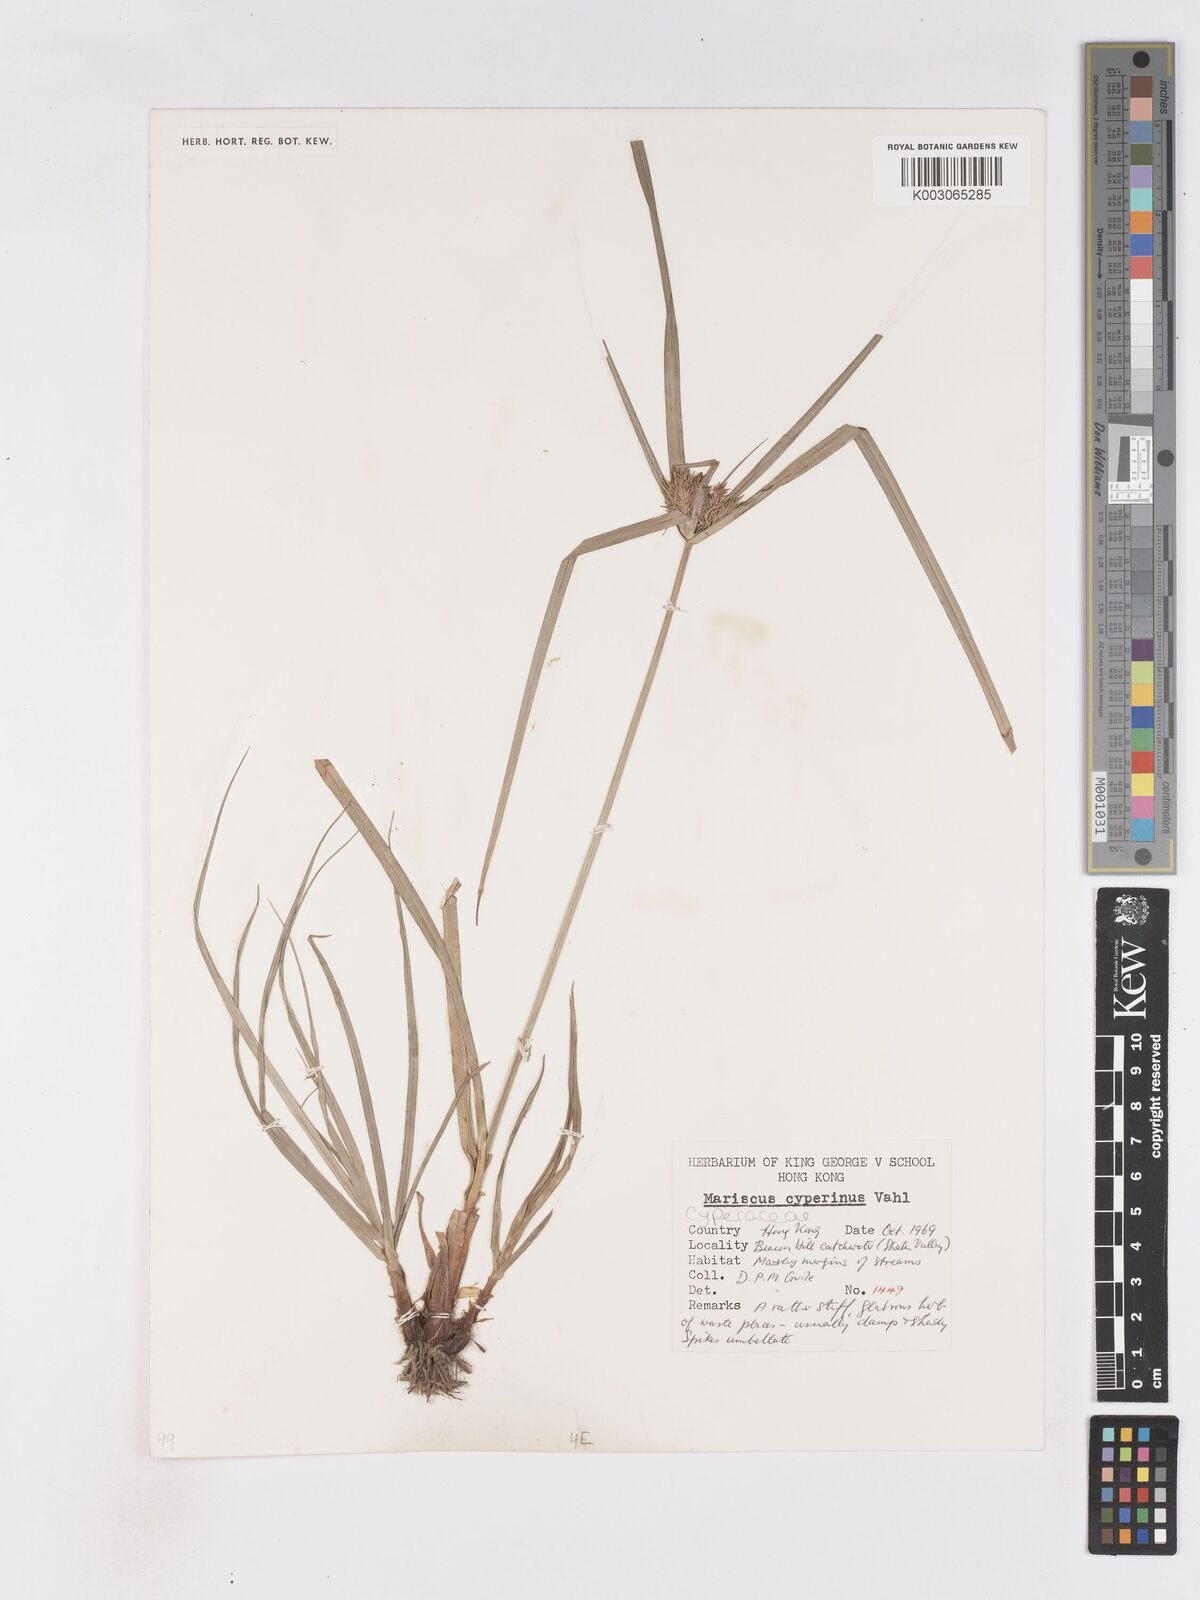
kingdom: Plantae
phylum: Tracheophyta
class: Liliopsida
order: Poales
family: Cyperaceae
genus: Cyperus
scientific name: Cyperus cyperinus
